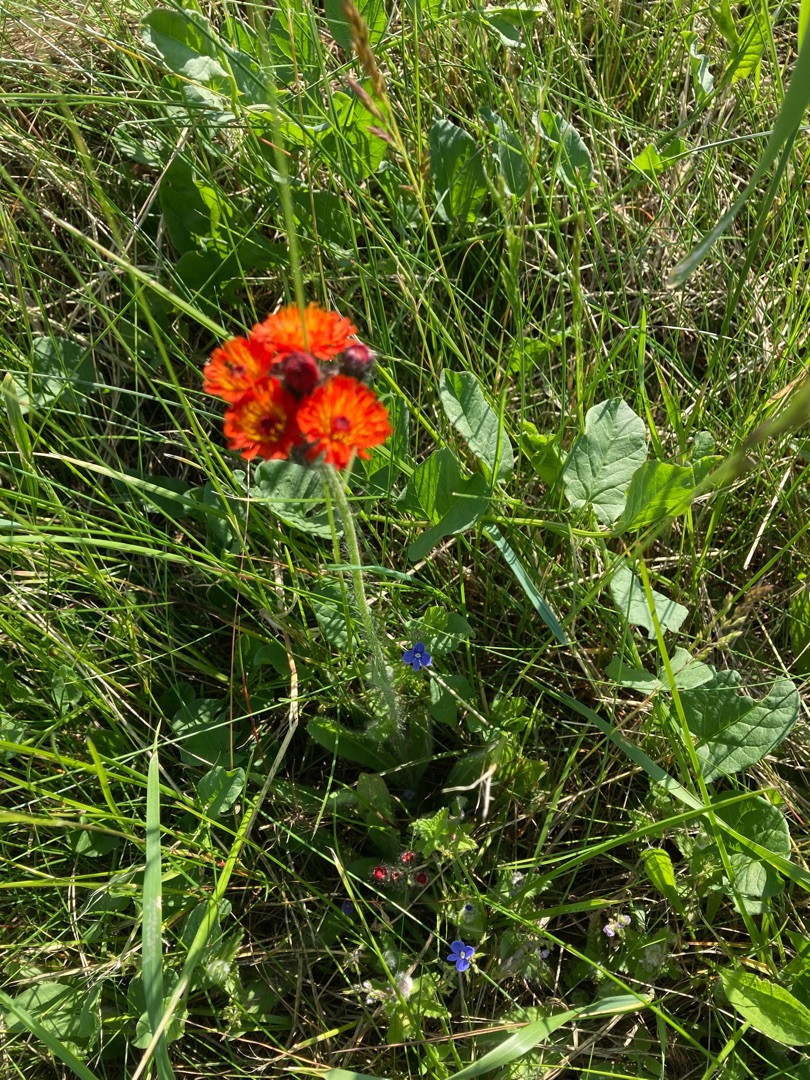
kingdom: Plantae
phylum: Tracheophyta
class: Magnoliopsida
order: Asterales
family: Asteraceae
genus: Pilosella
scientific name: Pilosella aurantiaca
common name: Pomerans-høgeurt
